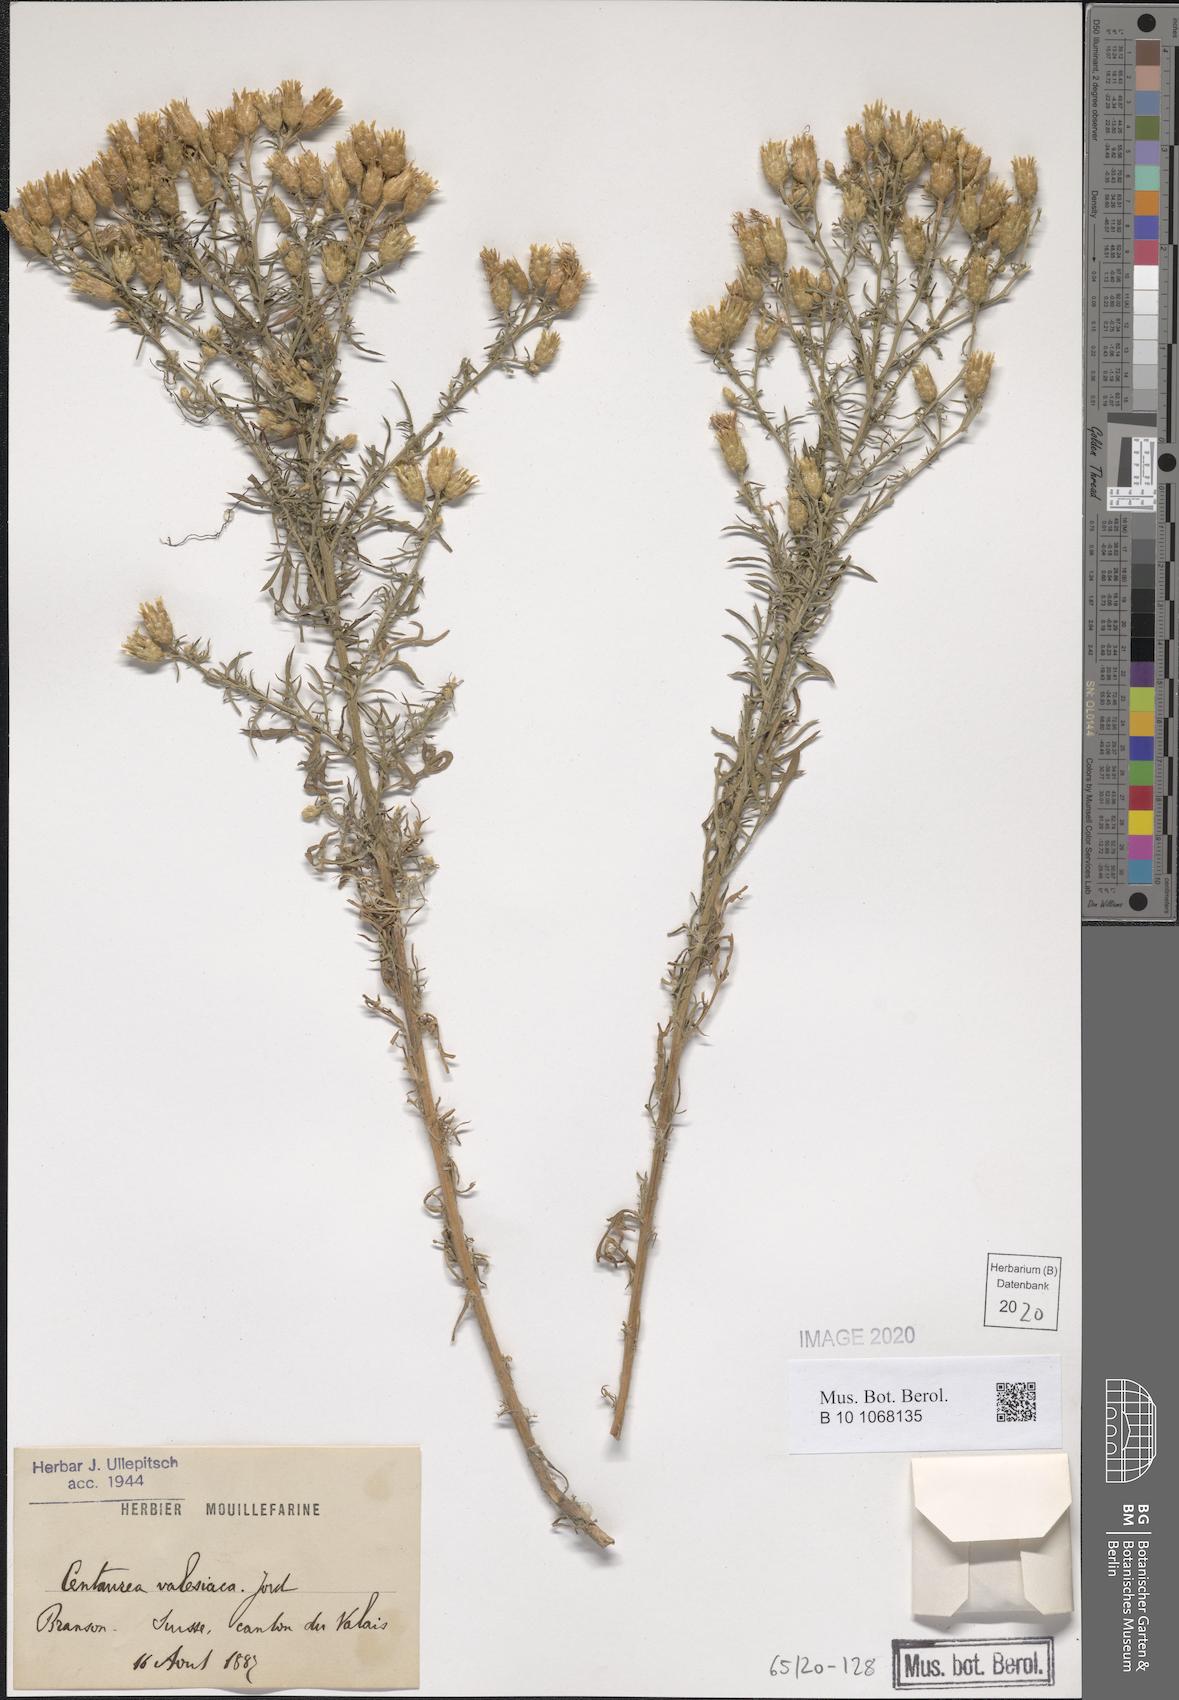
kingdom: Plantae
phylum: Tracheophyta
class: Magnoliopsida
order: Asterales
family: Asteraceae
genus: Centaurea
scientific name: Centaurea valesiaca
